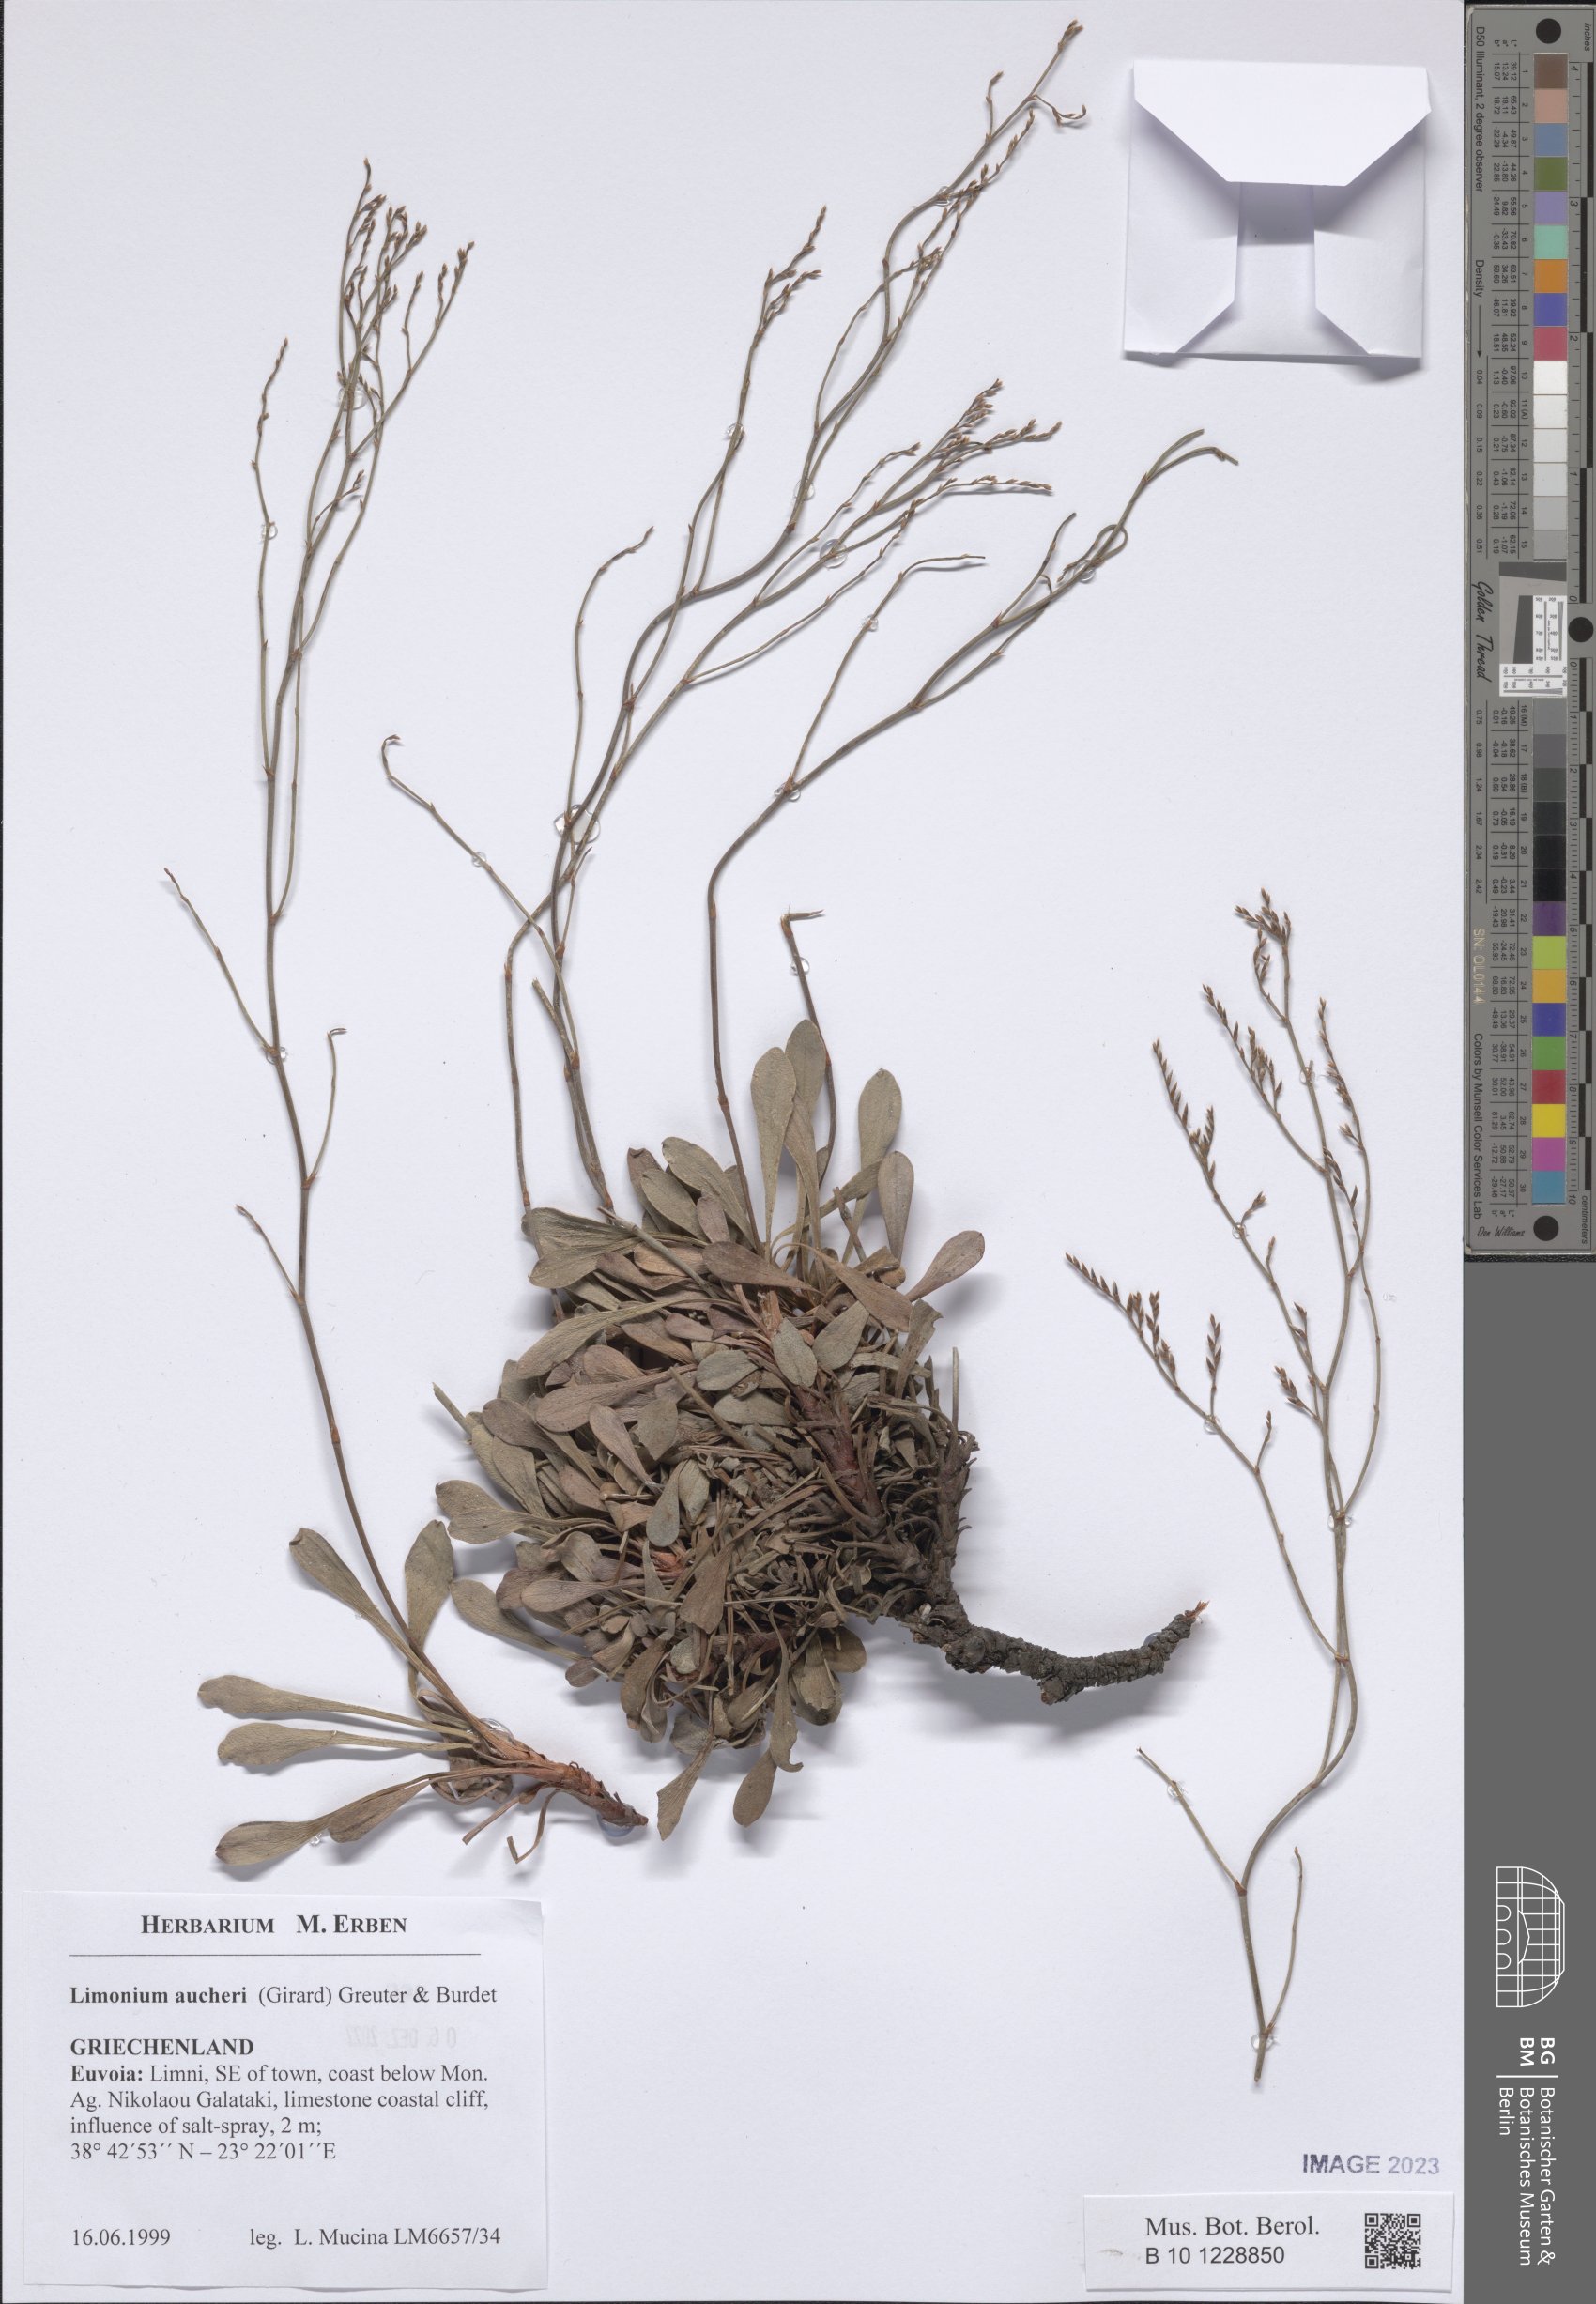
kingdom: Plantae
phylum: Tracheophyta
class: Magnoliopsida
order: Caryophyllales
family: Plumbaginaceae
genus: Limonium
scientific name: Limonium aucheri
